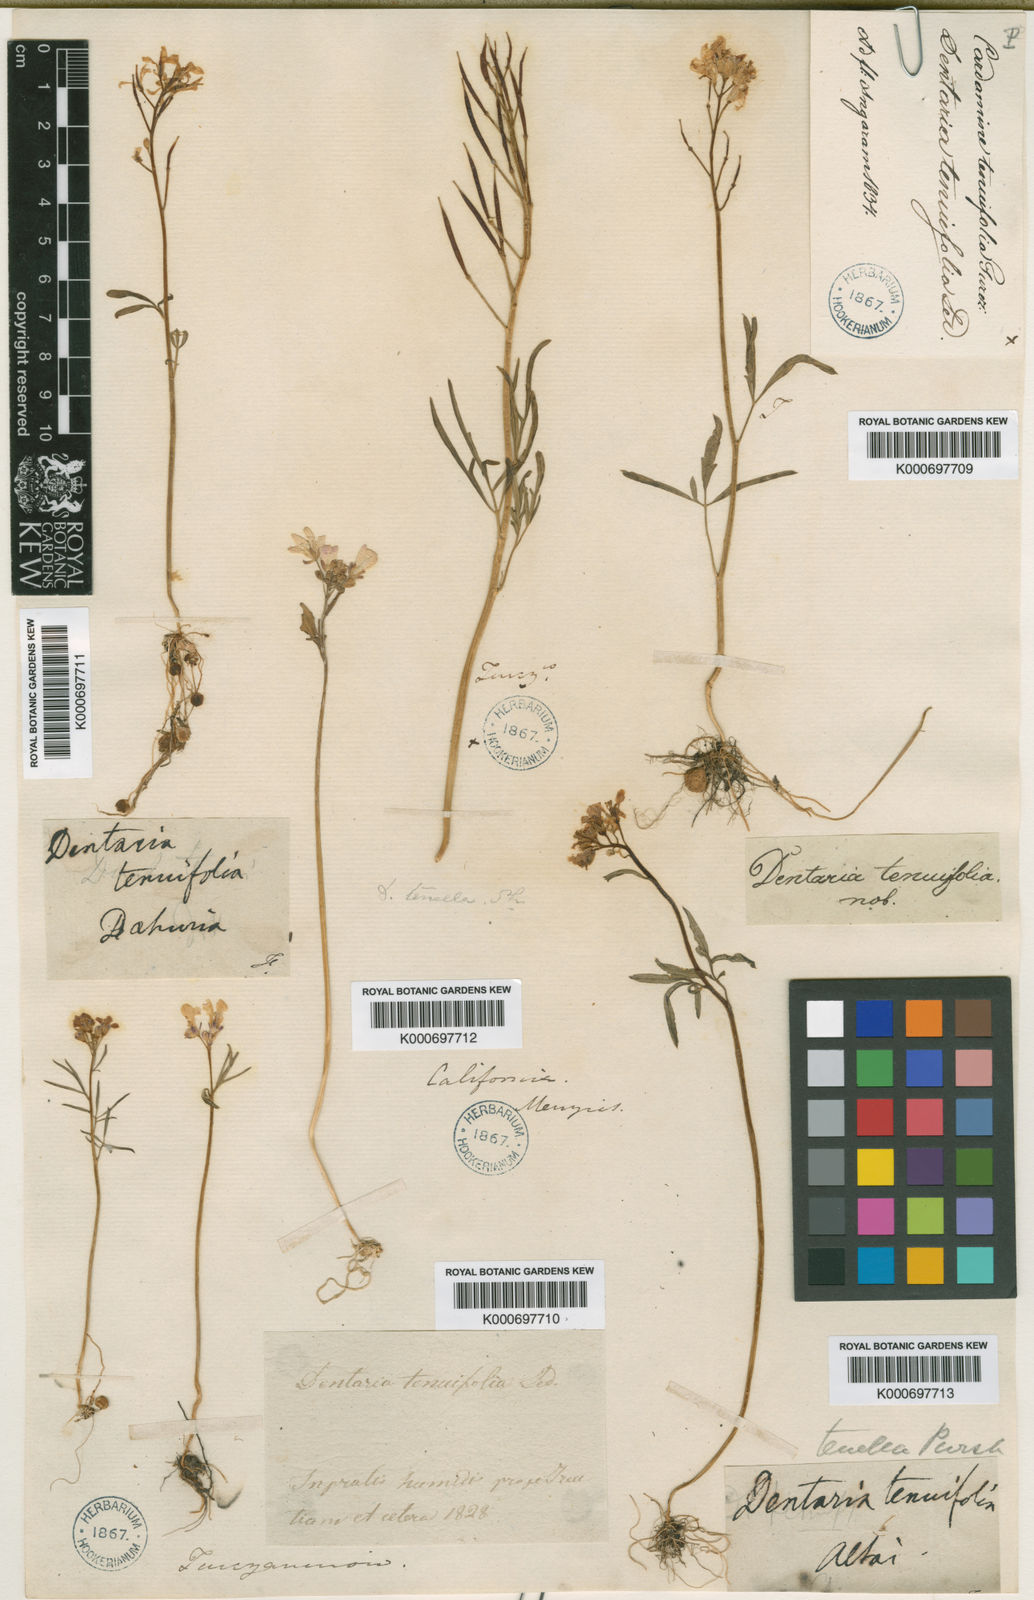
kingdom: Plantae
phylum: Tracheophyta
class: Magnoliopsida
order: Brassicales
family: Brassicaceae
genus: Cardamine
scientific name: Cardamine trifida
